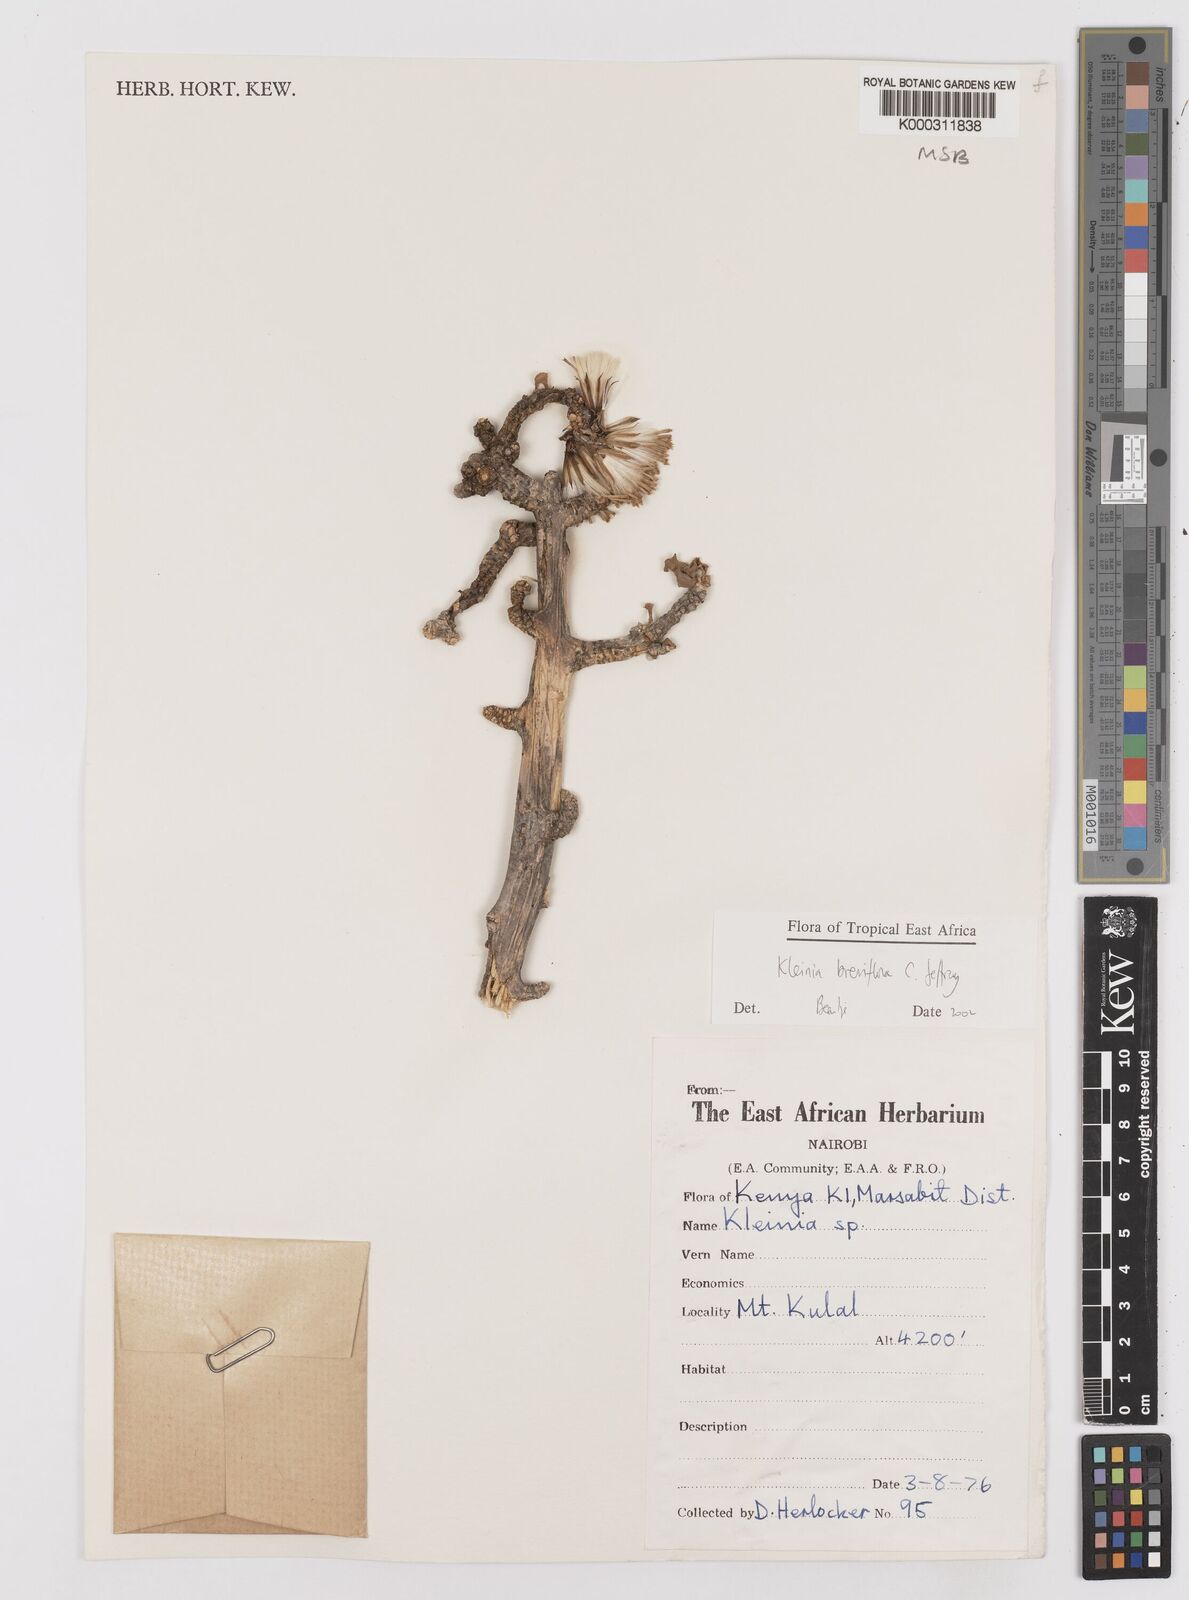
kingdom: Plantae
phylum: Tracheophyta
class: Magnoliopsida
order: Asterales
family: Asteraceae
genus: Kleinia
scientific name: Kleinia polycotoma
